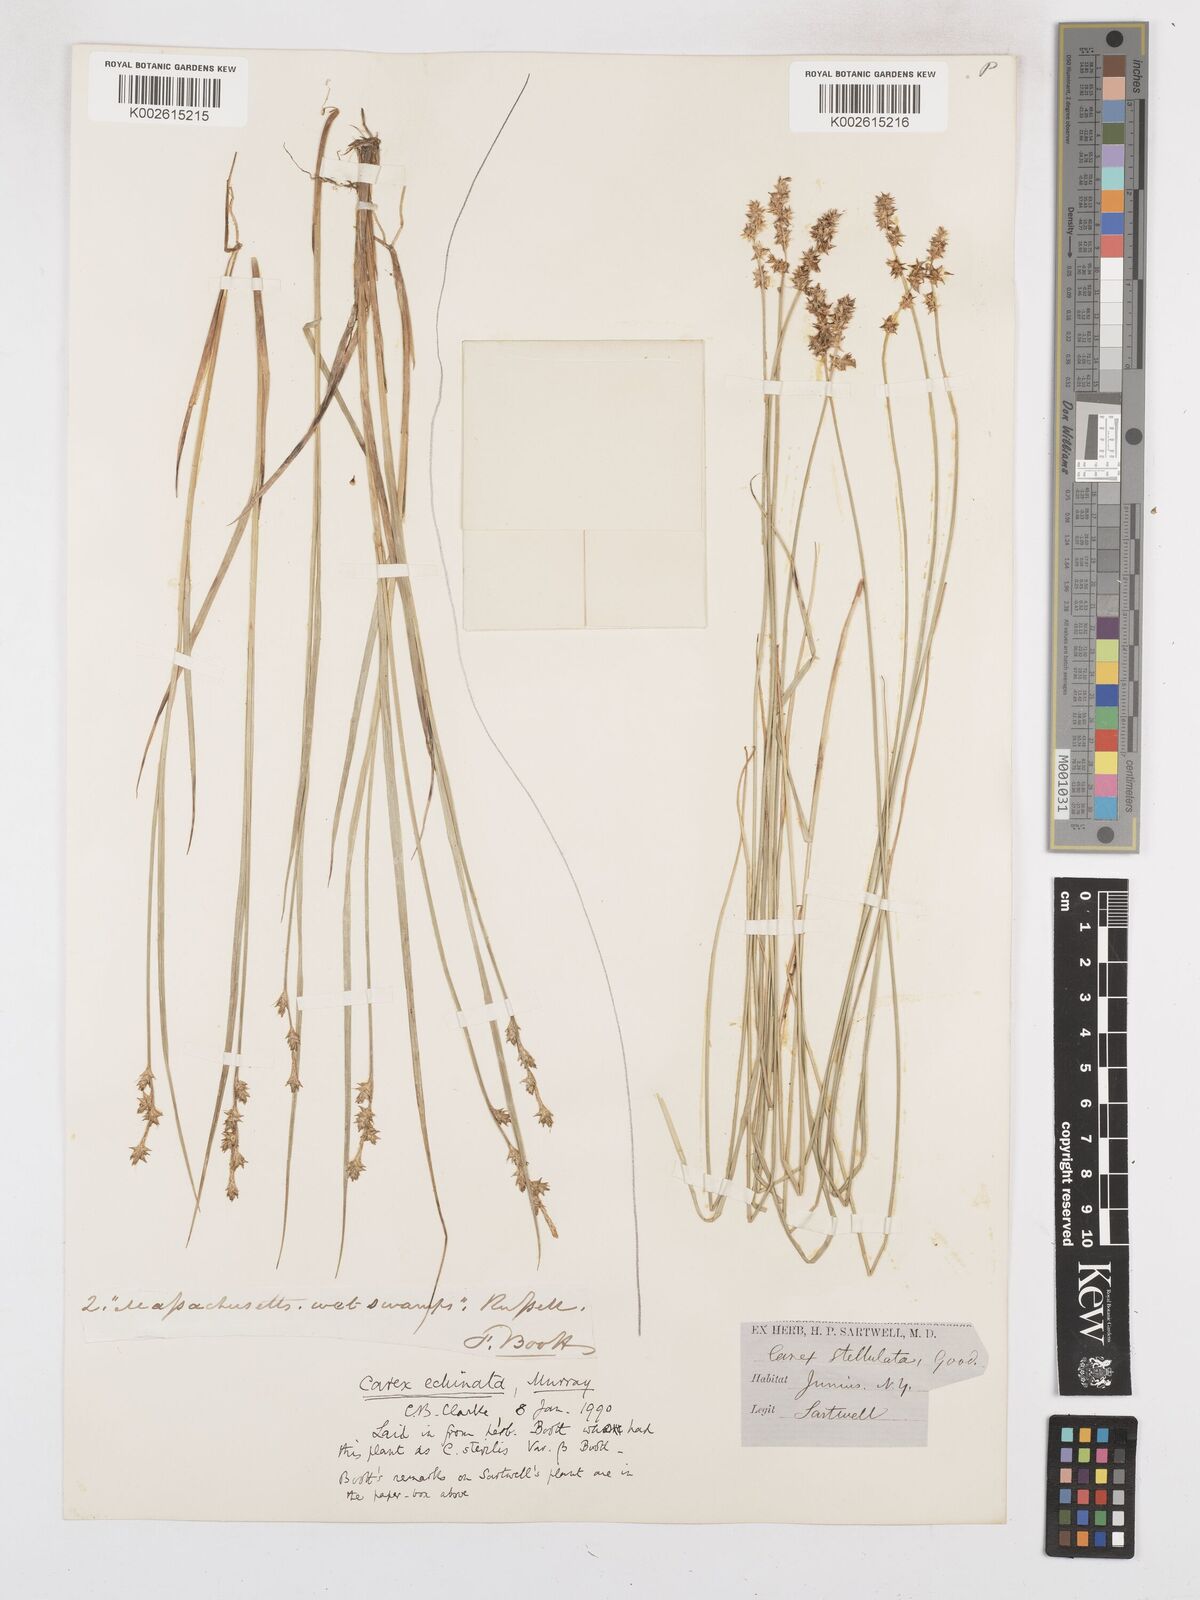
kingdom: Plantae
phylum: Tracheophyta
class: Liliopsida
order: Poales
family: Cyperaceae
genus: Carex
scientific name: Carex echinata
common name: Star sedge
